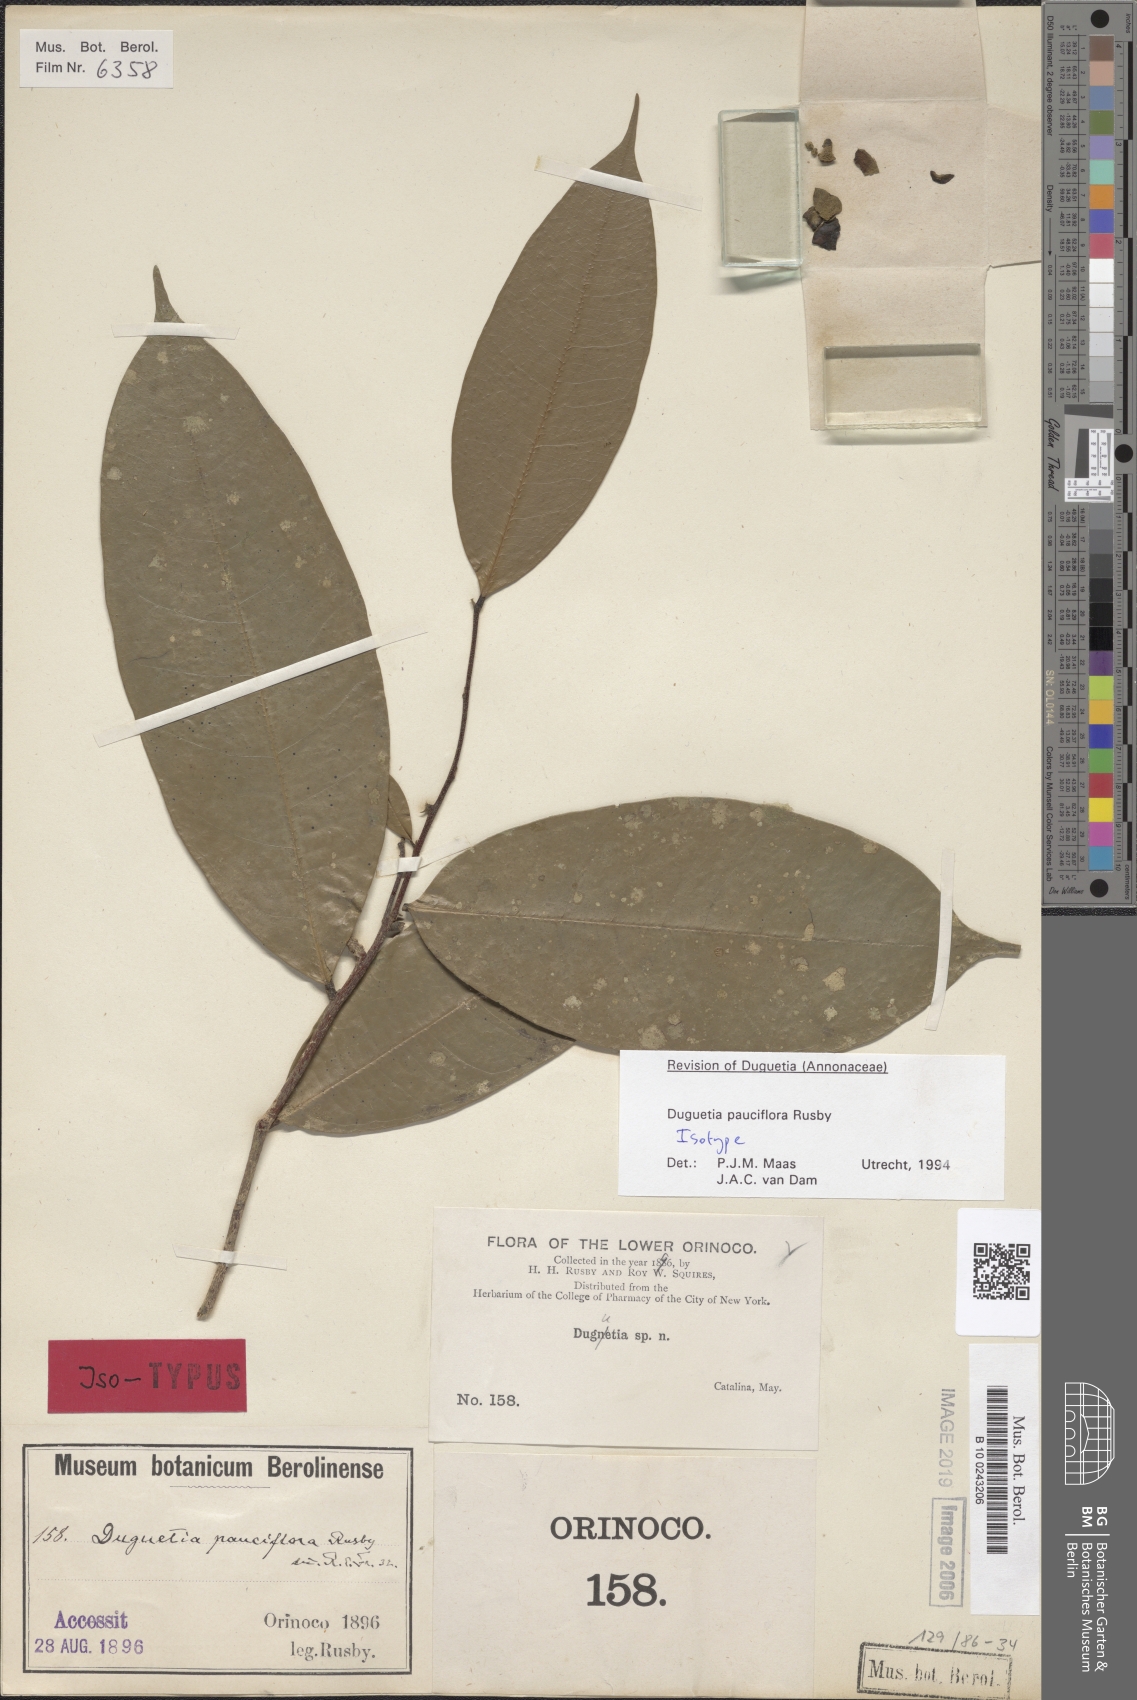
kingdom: Plantae
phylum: Tracheophyta
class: Magnoliopsida
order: Magnoliales
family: Annonaceae
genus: Duguetia
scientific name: Duguetia pauciflora
